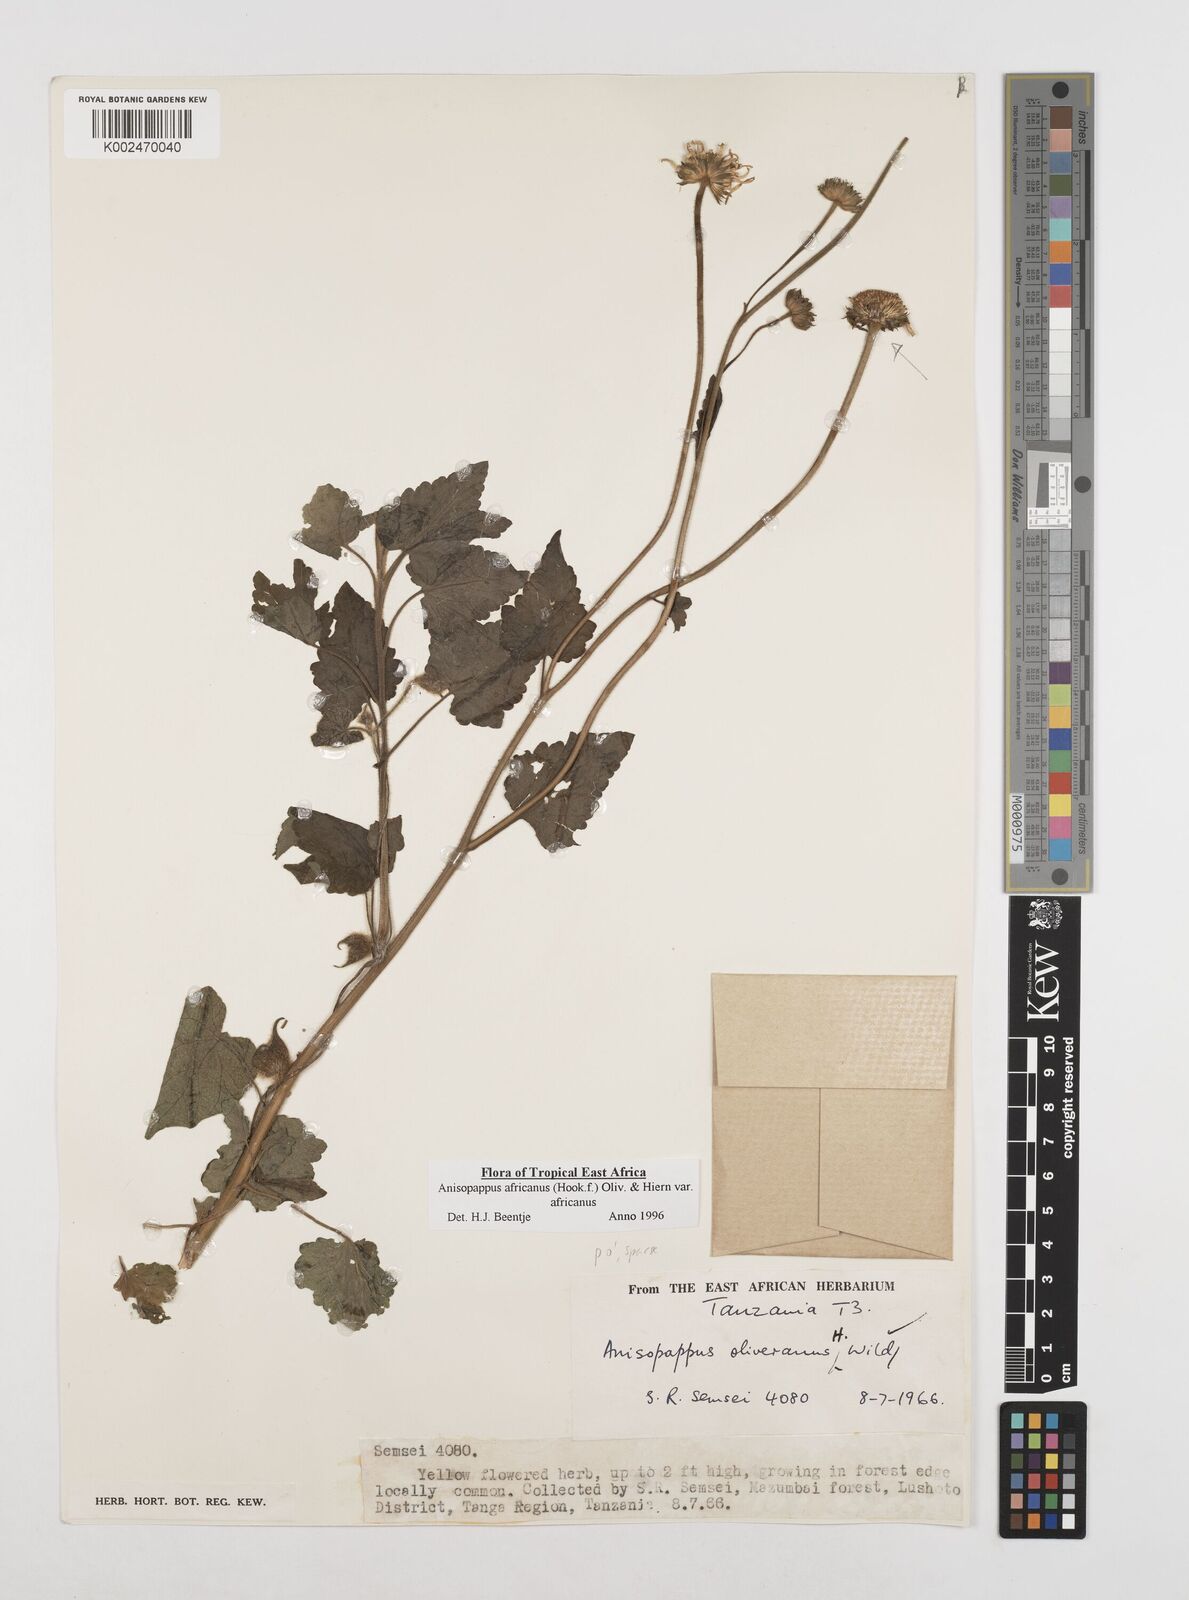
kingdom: Plantae
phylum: Tracheophyta
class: Magnoliopsida
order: Asterales
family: Asteraceae
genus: Anisopappus
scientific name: Anisopappus africanus
